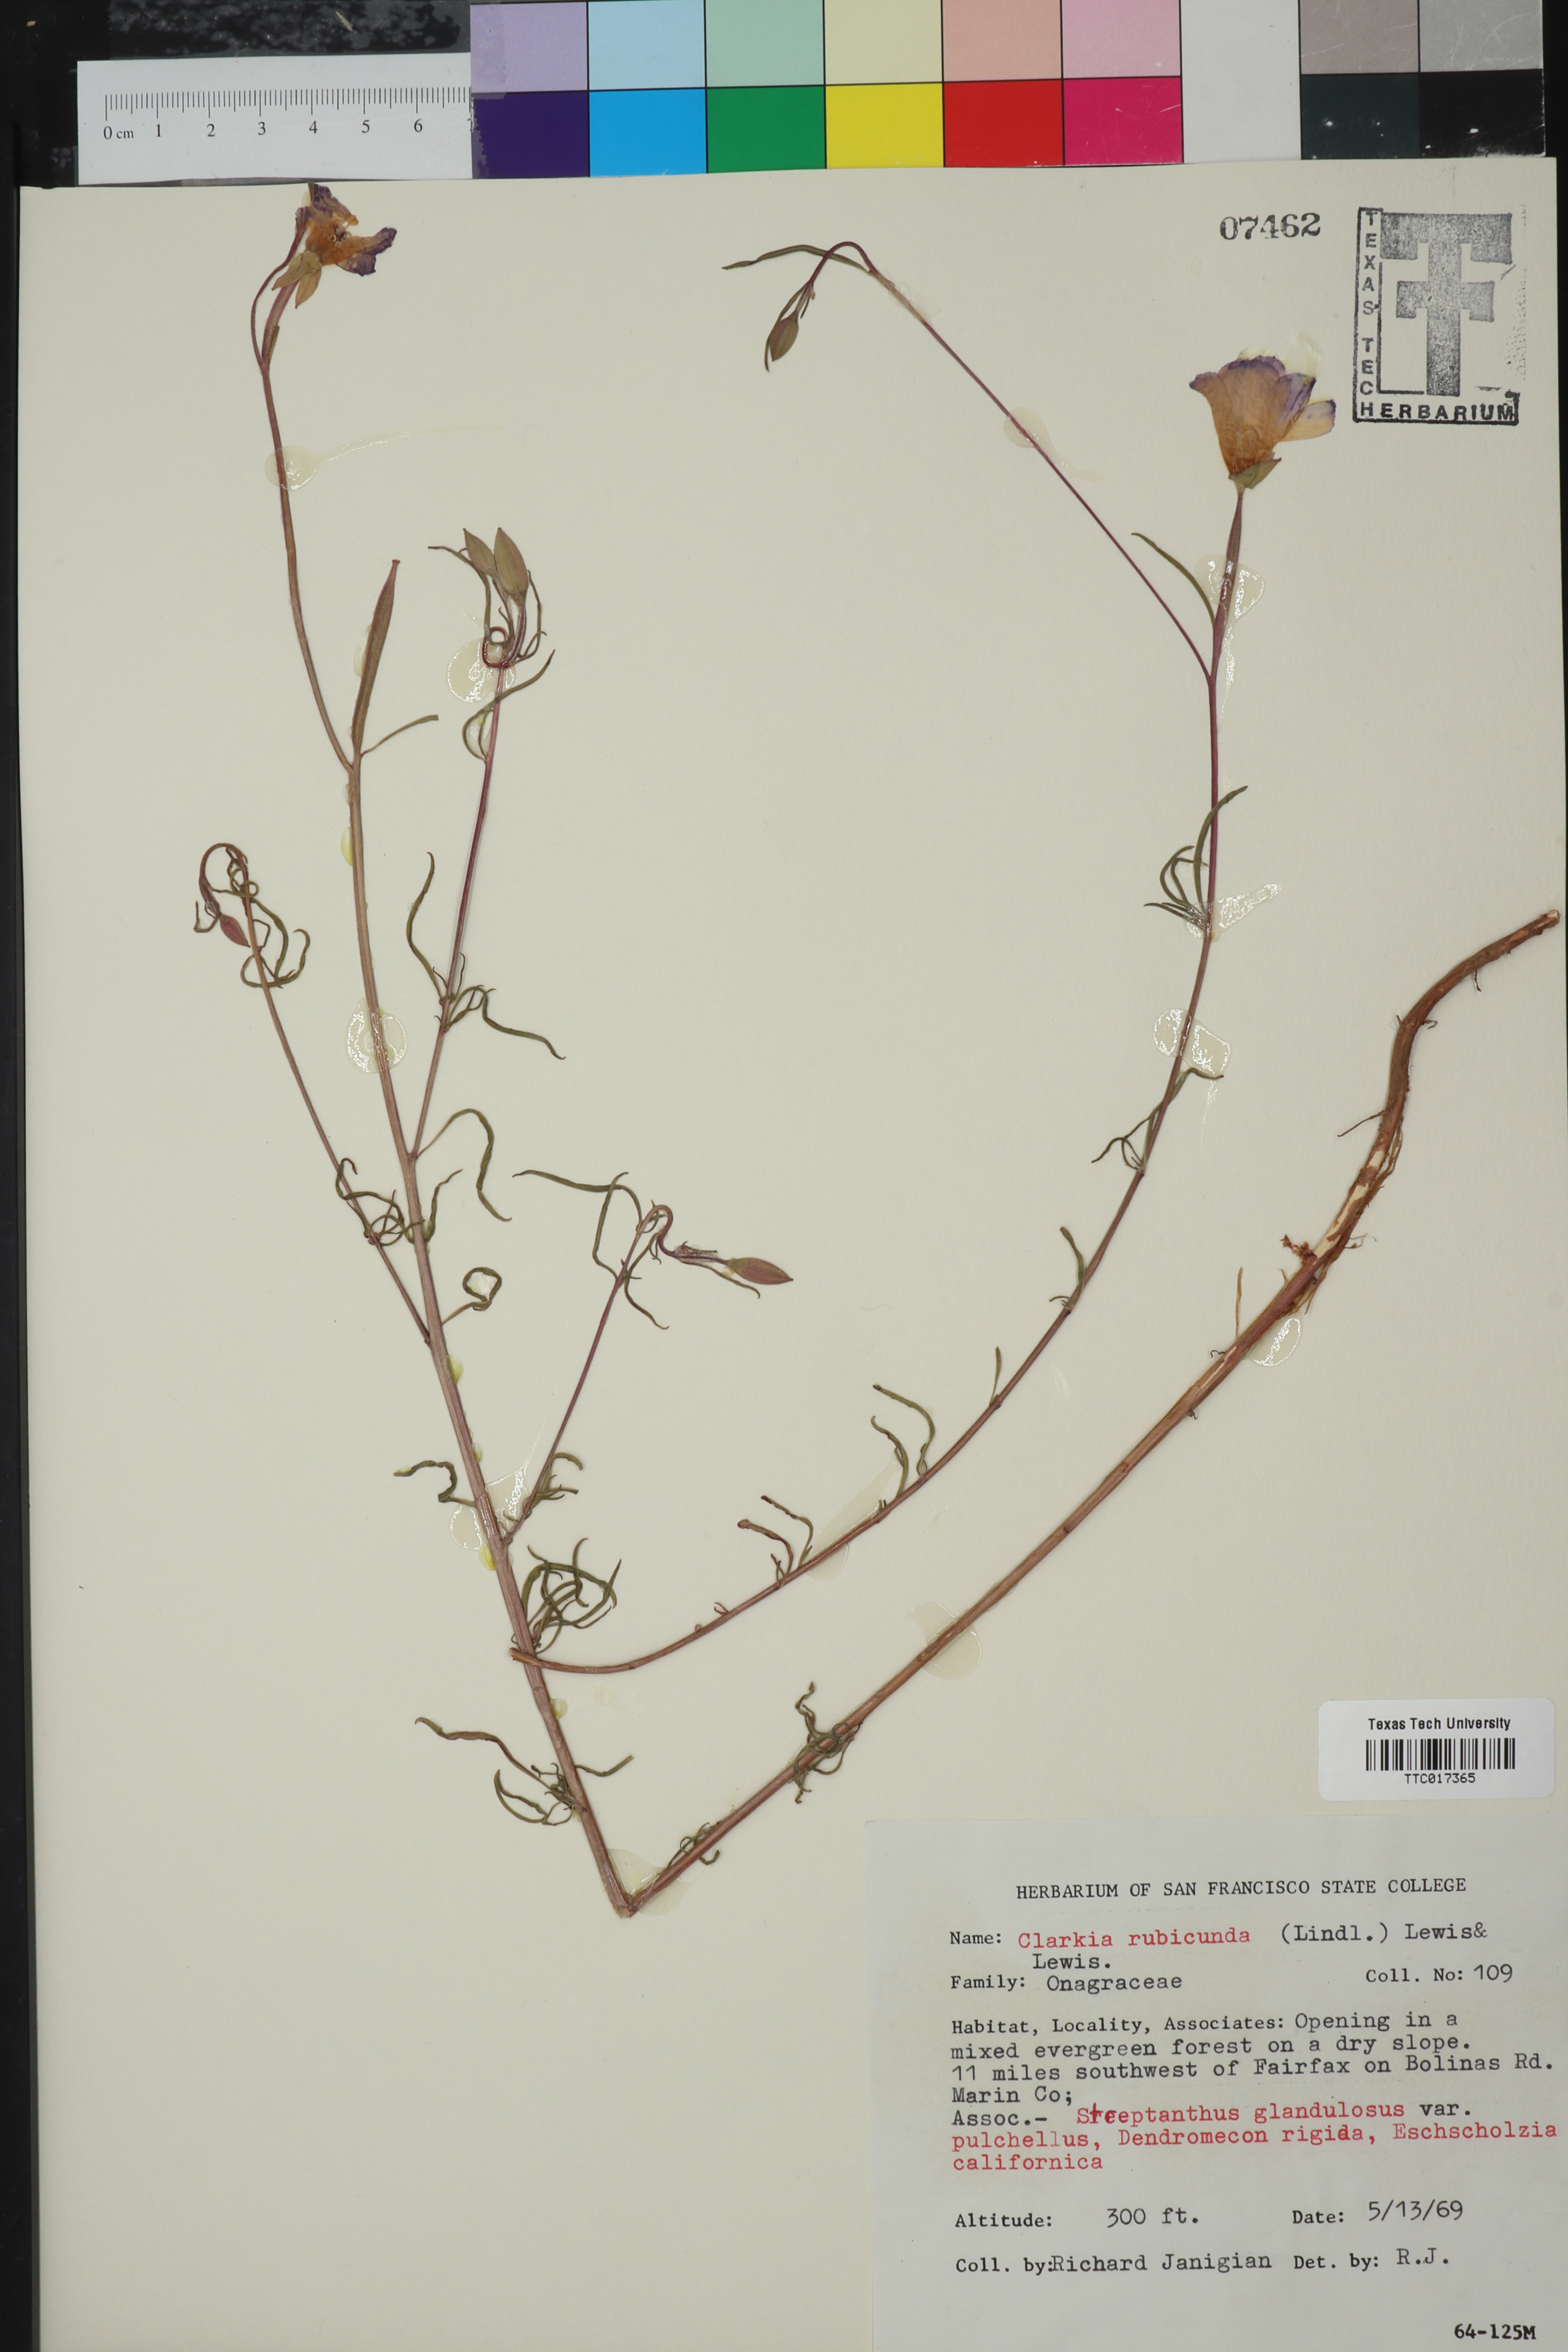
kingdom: Plantae
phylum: Tracheophyta
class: Magnoliopsida
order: Myrtales
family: Onagraceae
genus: Clarkia
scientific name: Clarkia rubicunda
